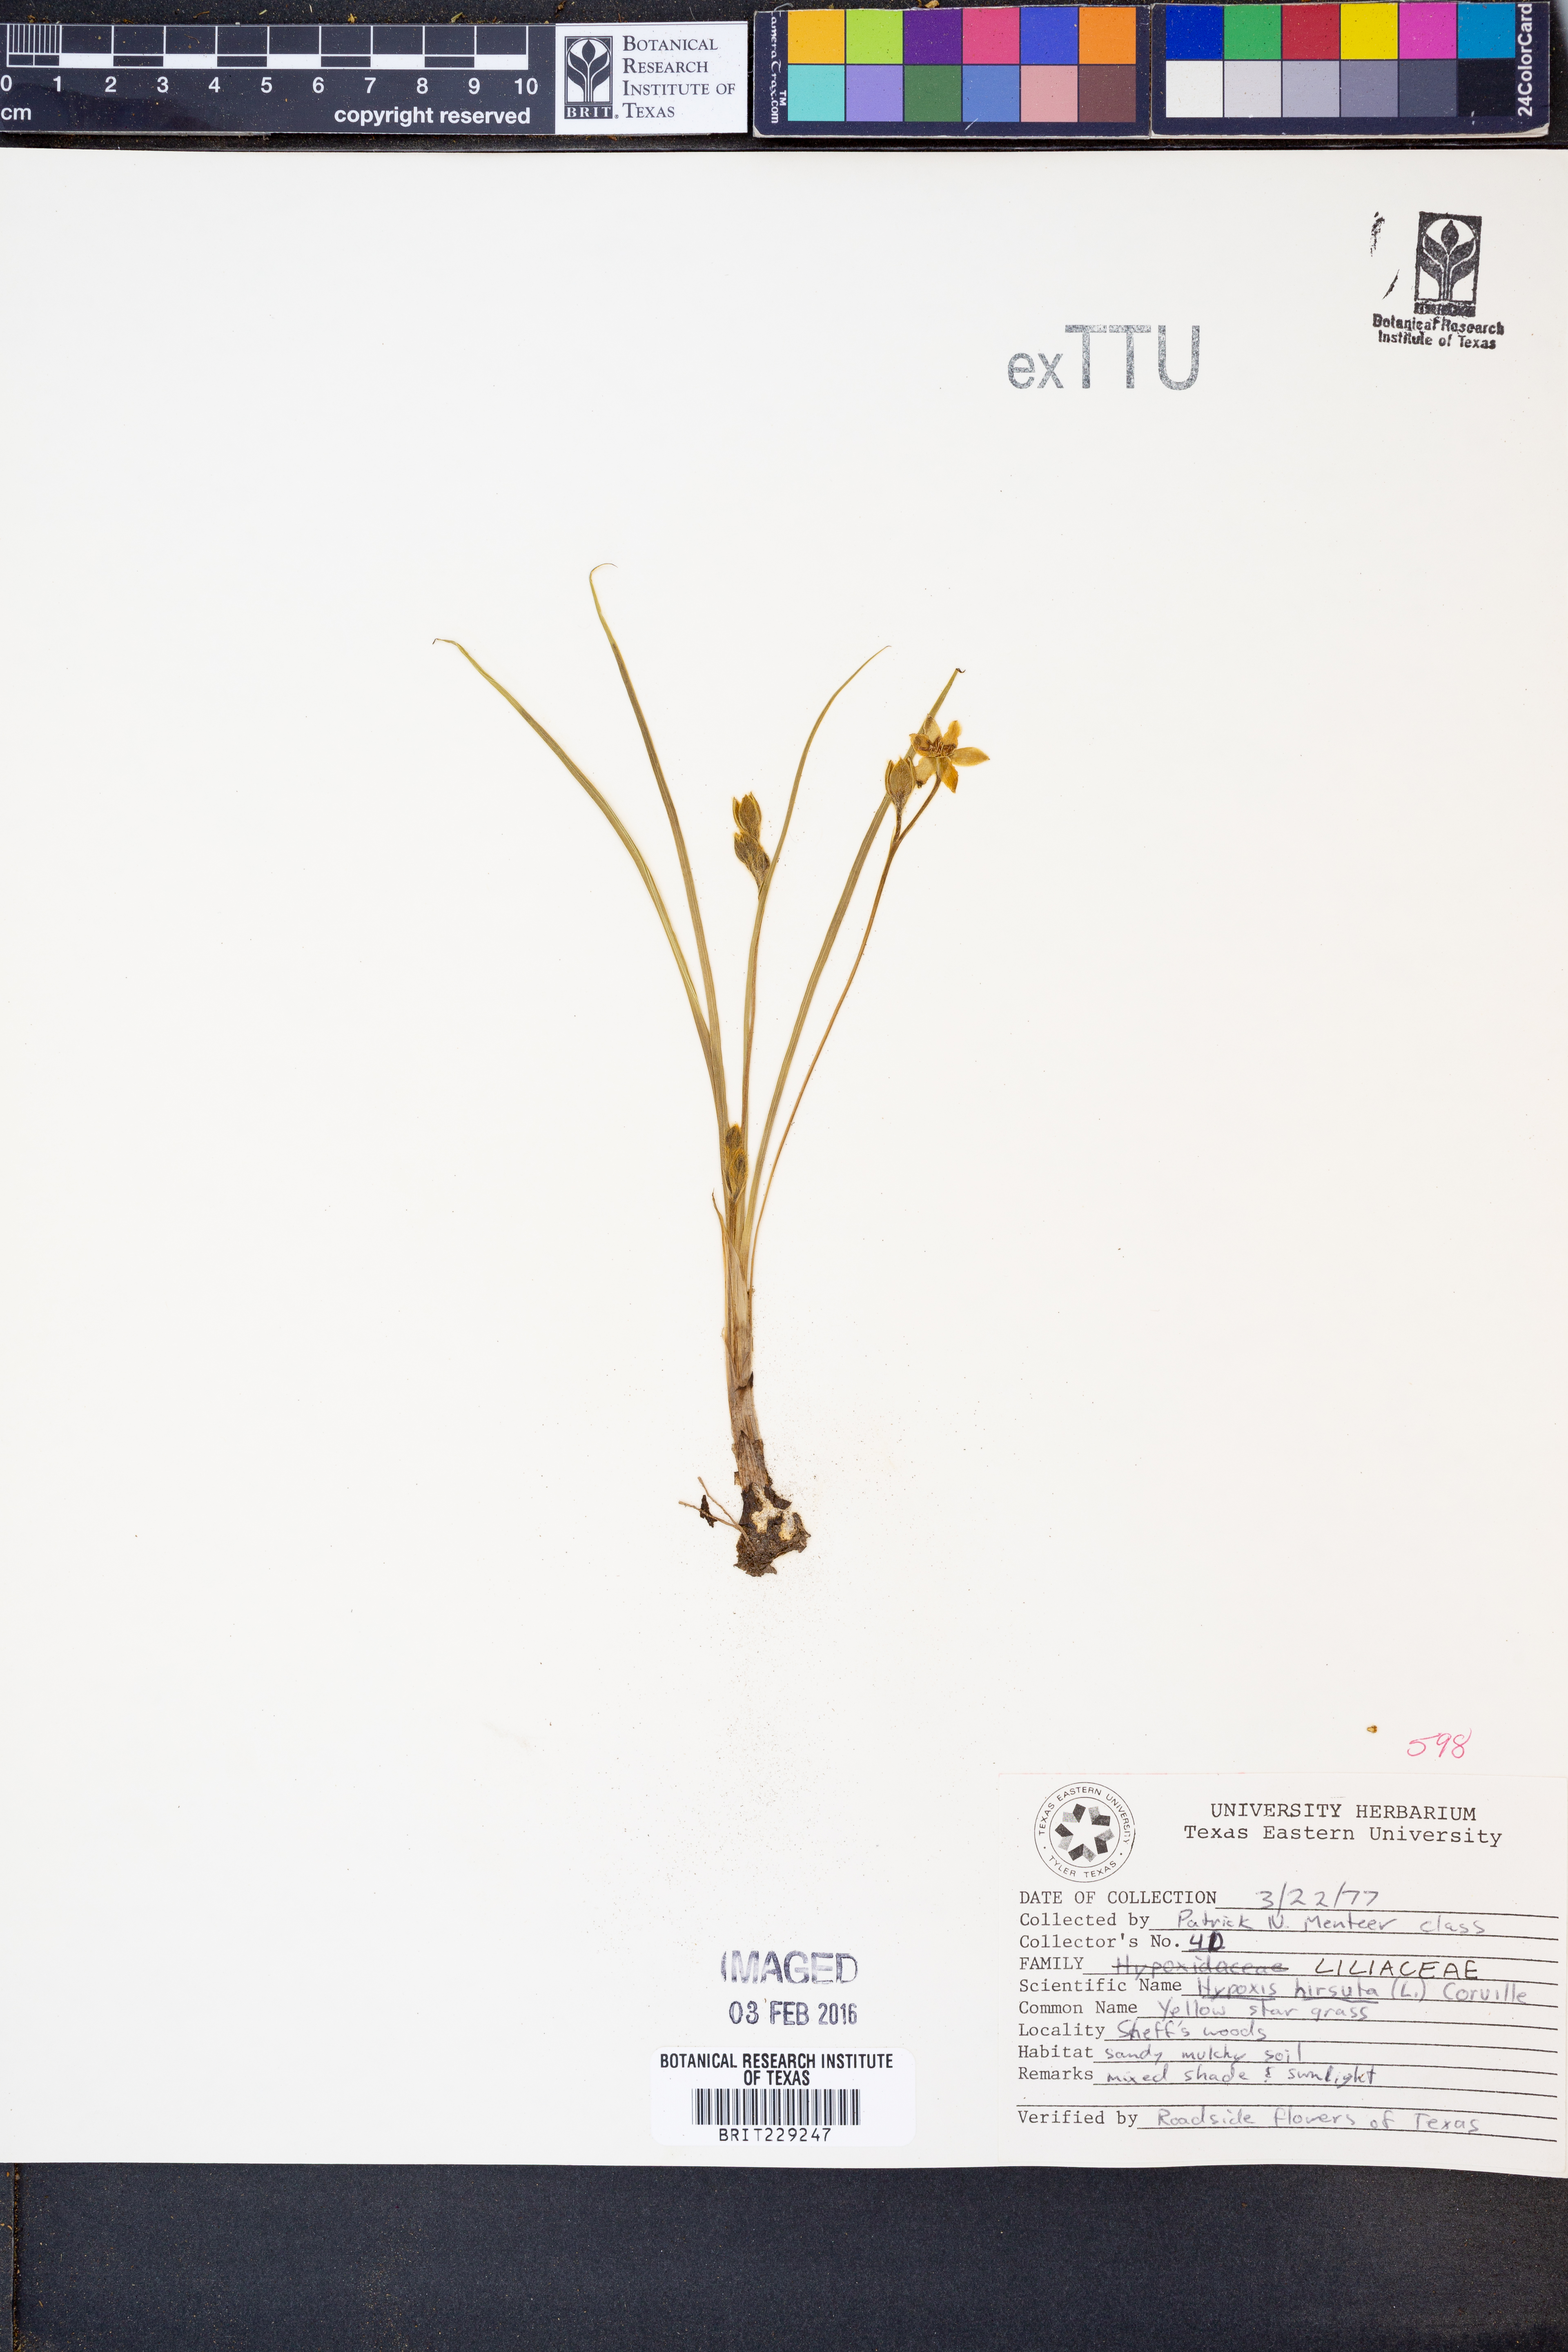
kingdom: Plantae
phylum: Tracheophyta
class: Liliopsida
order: Asparagales
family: Hypoxidaceae
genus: Hypoxis
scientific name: Hypoxis hirsuta
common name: Common goldstar
